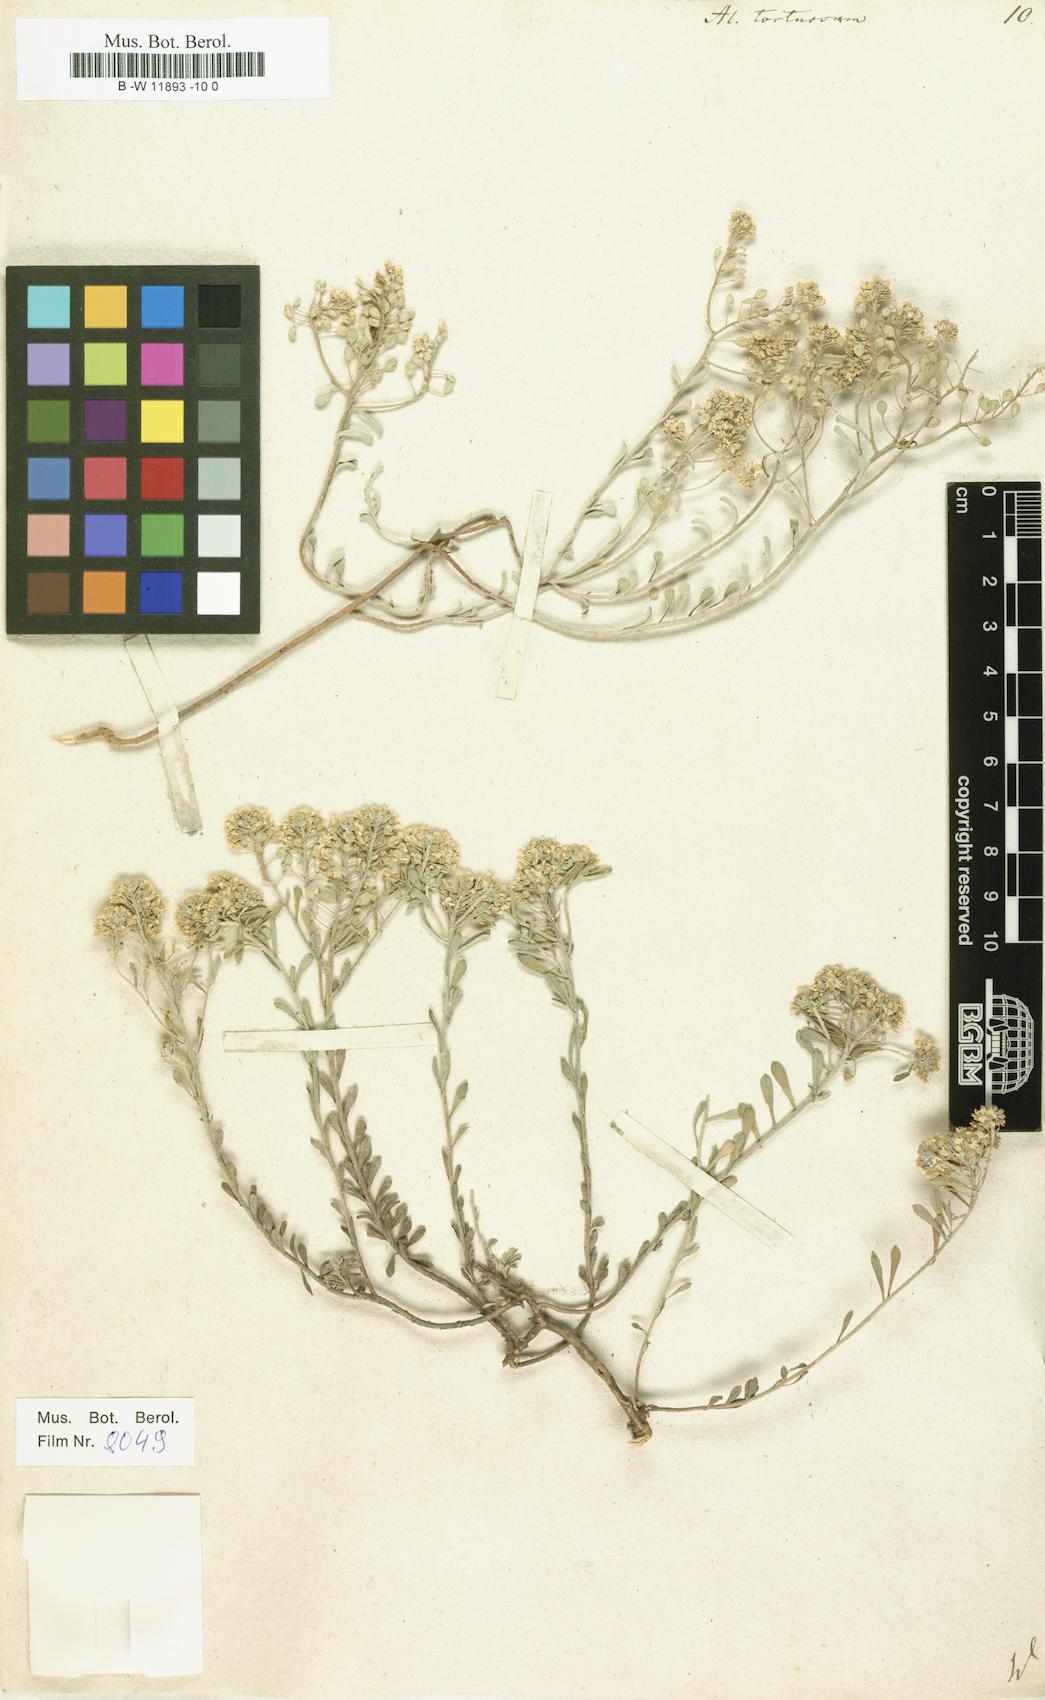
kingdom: Plantae
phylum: Tracheophyta
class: Magnoliopsida
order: Brassicales
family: Brassicaceae
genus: Odontarrhena
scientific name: Odontarrhena tortuosa
